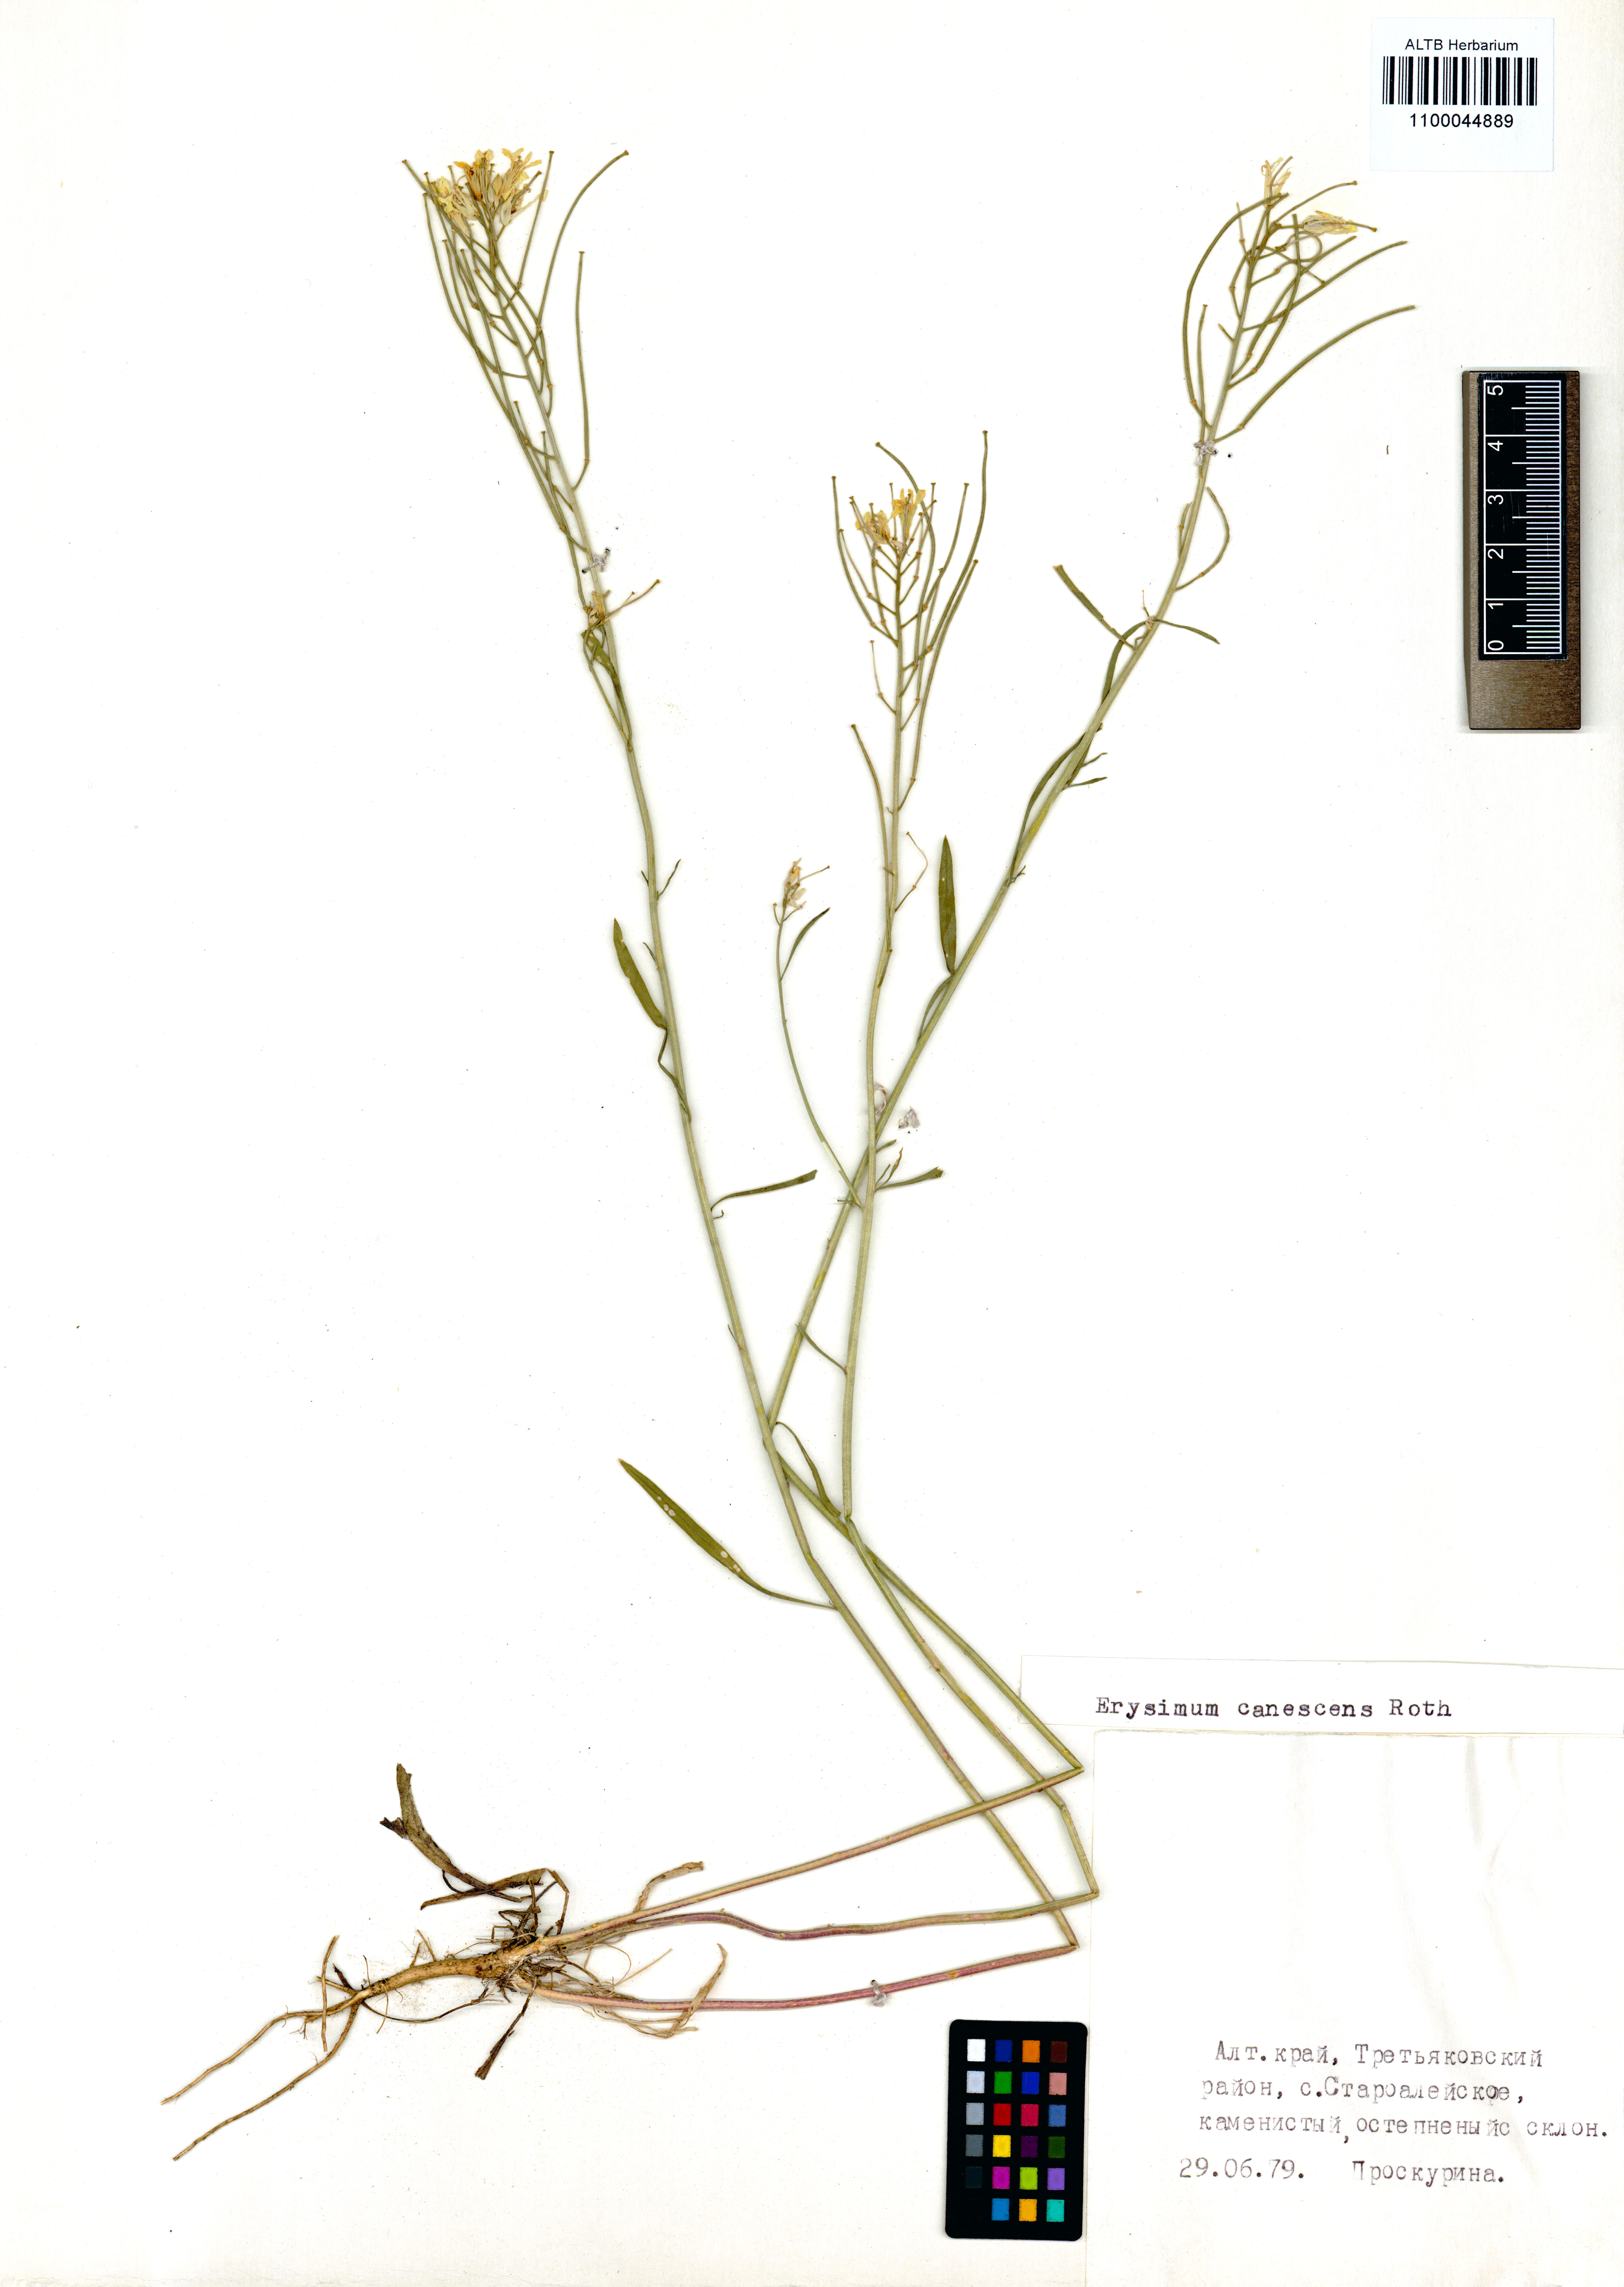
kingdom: Plantae
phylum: Tracheophyta
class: Magnoliopsida
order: Brassicales
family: Brassicaceae
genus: Erysimum
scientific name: Erysimum canescens
